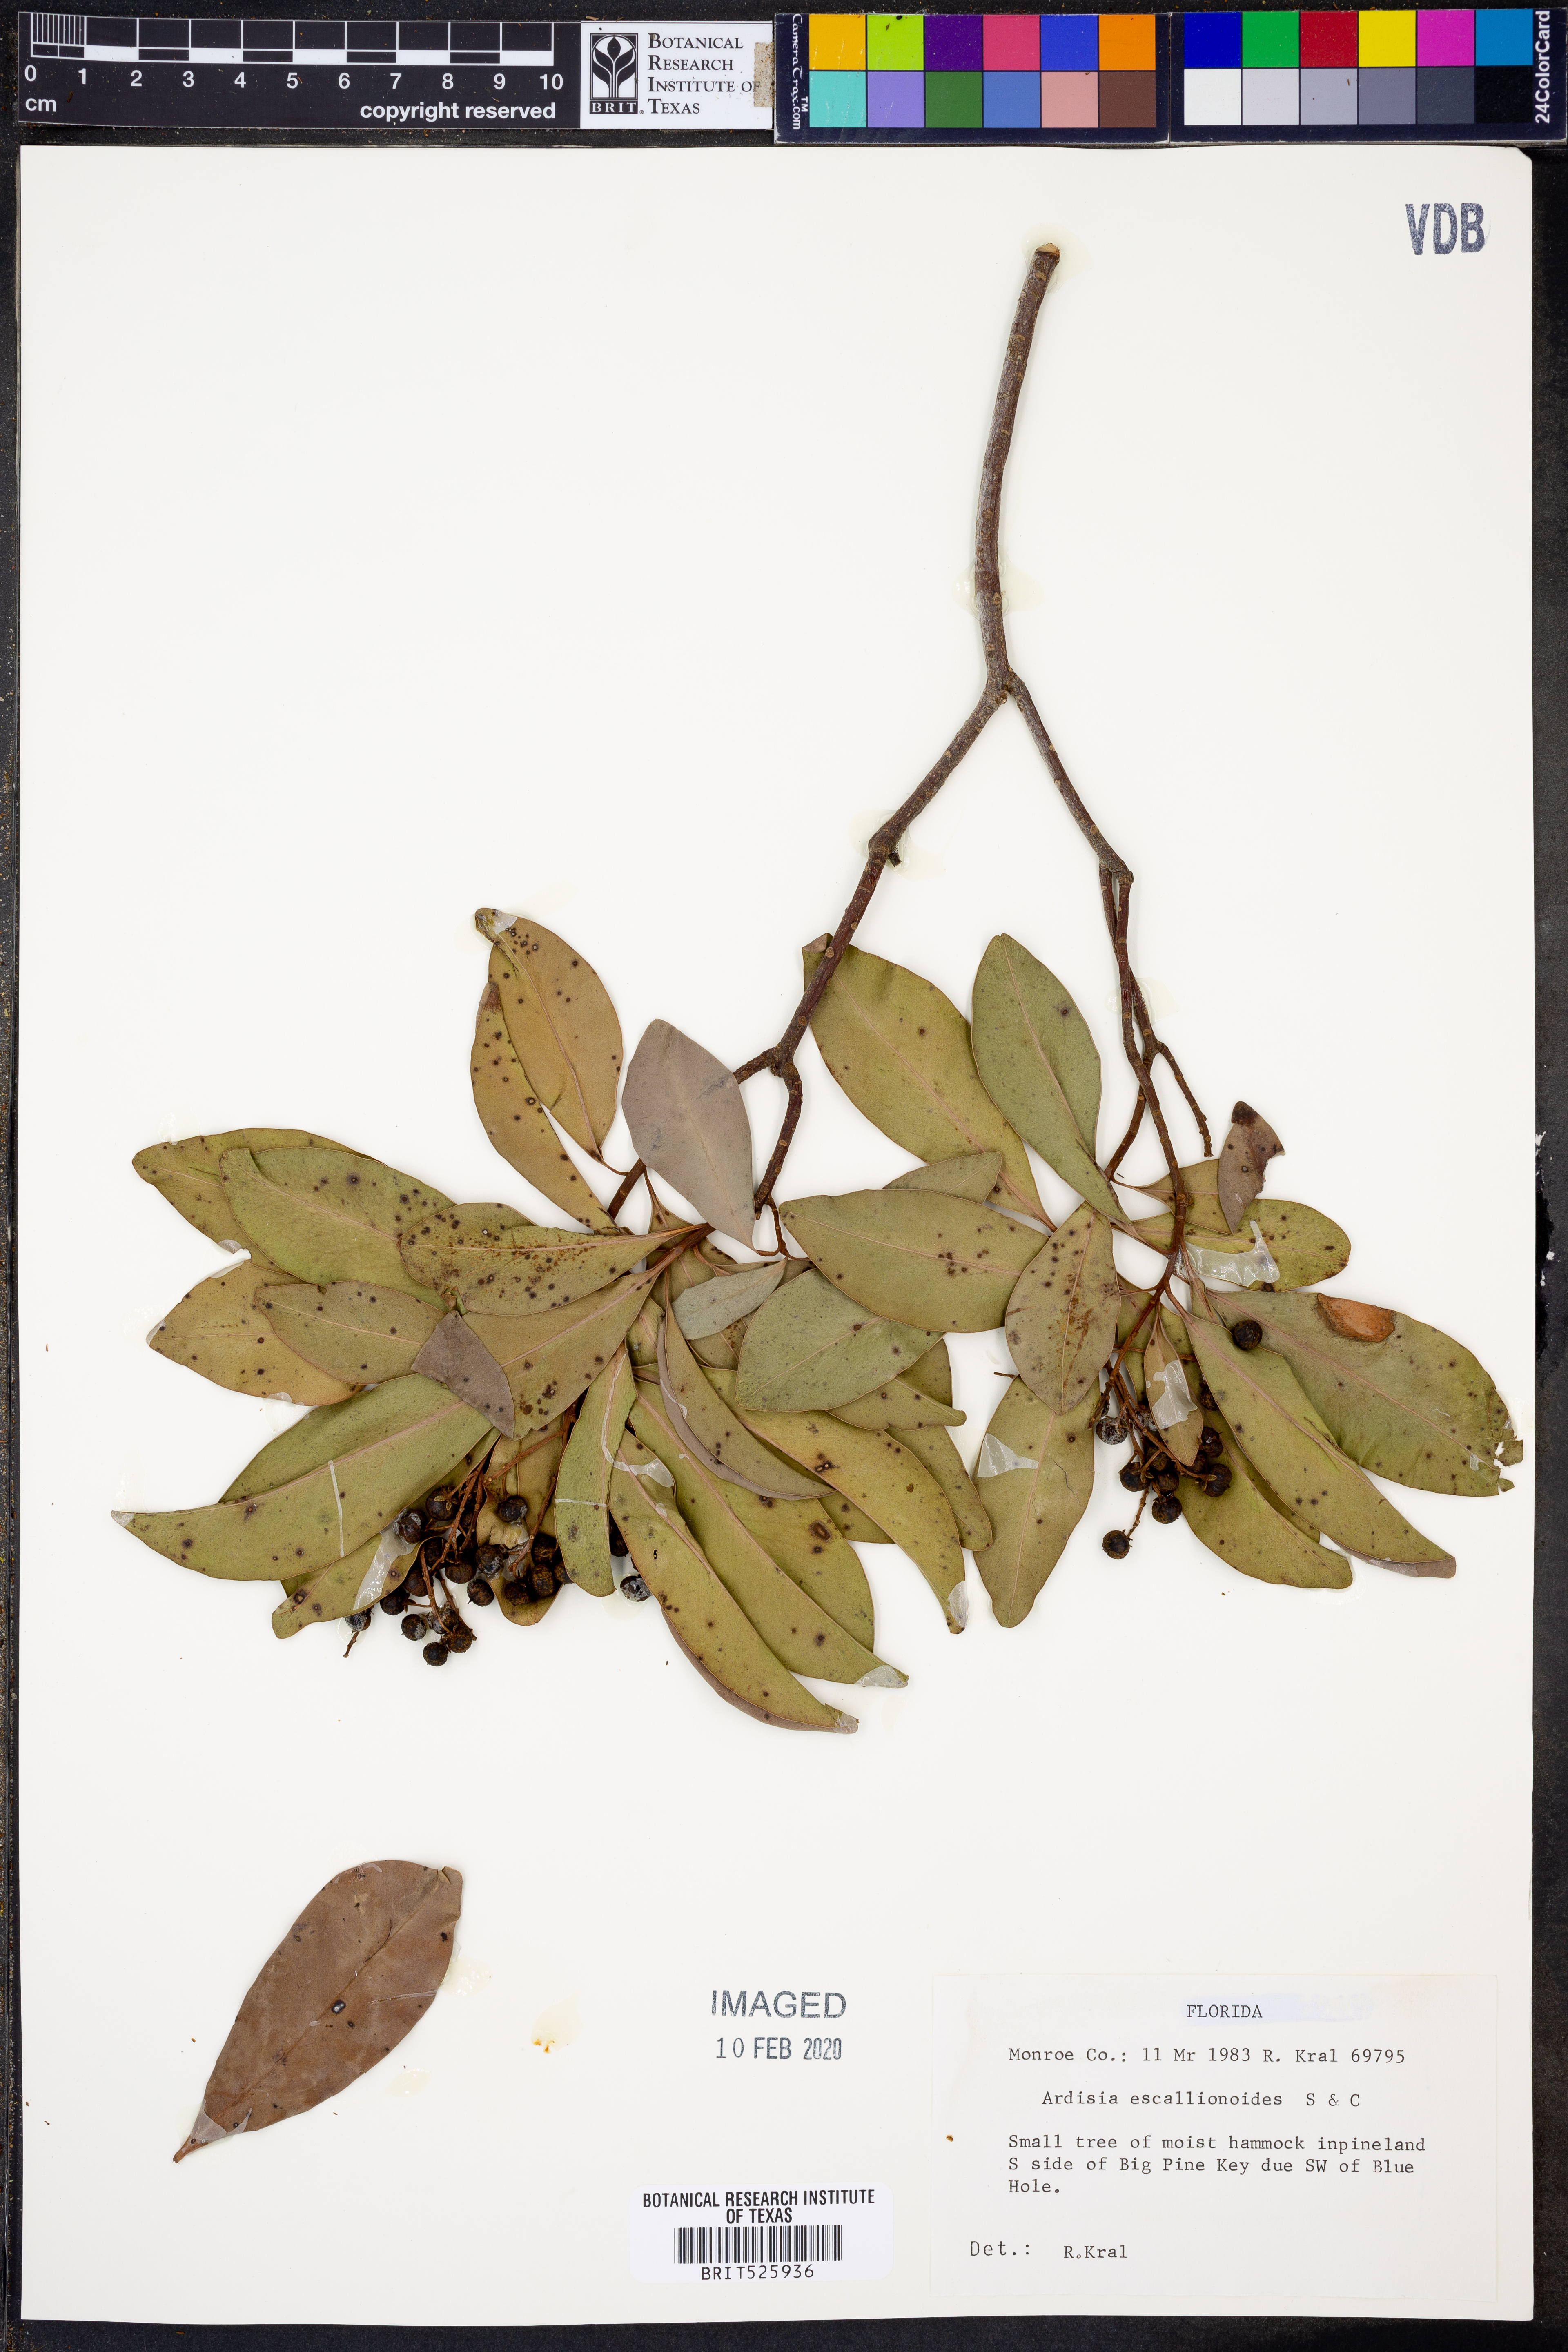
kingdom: Plantae
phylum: Tracheophyta
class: Magnoliopsida
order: Ericales
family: Primulaceae
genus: Ardisia
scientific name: Ardisia escallonioides
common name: Island marlberry
